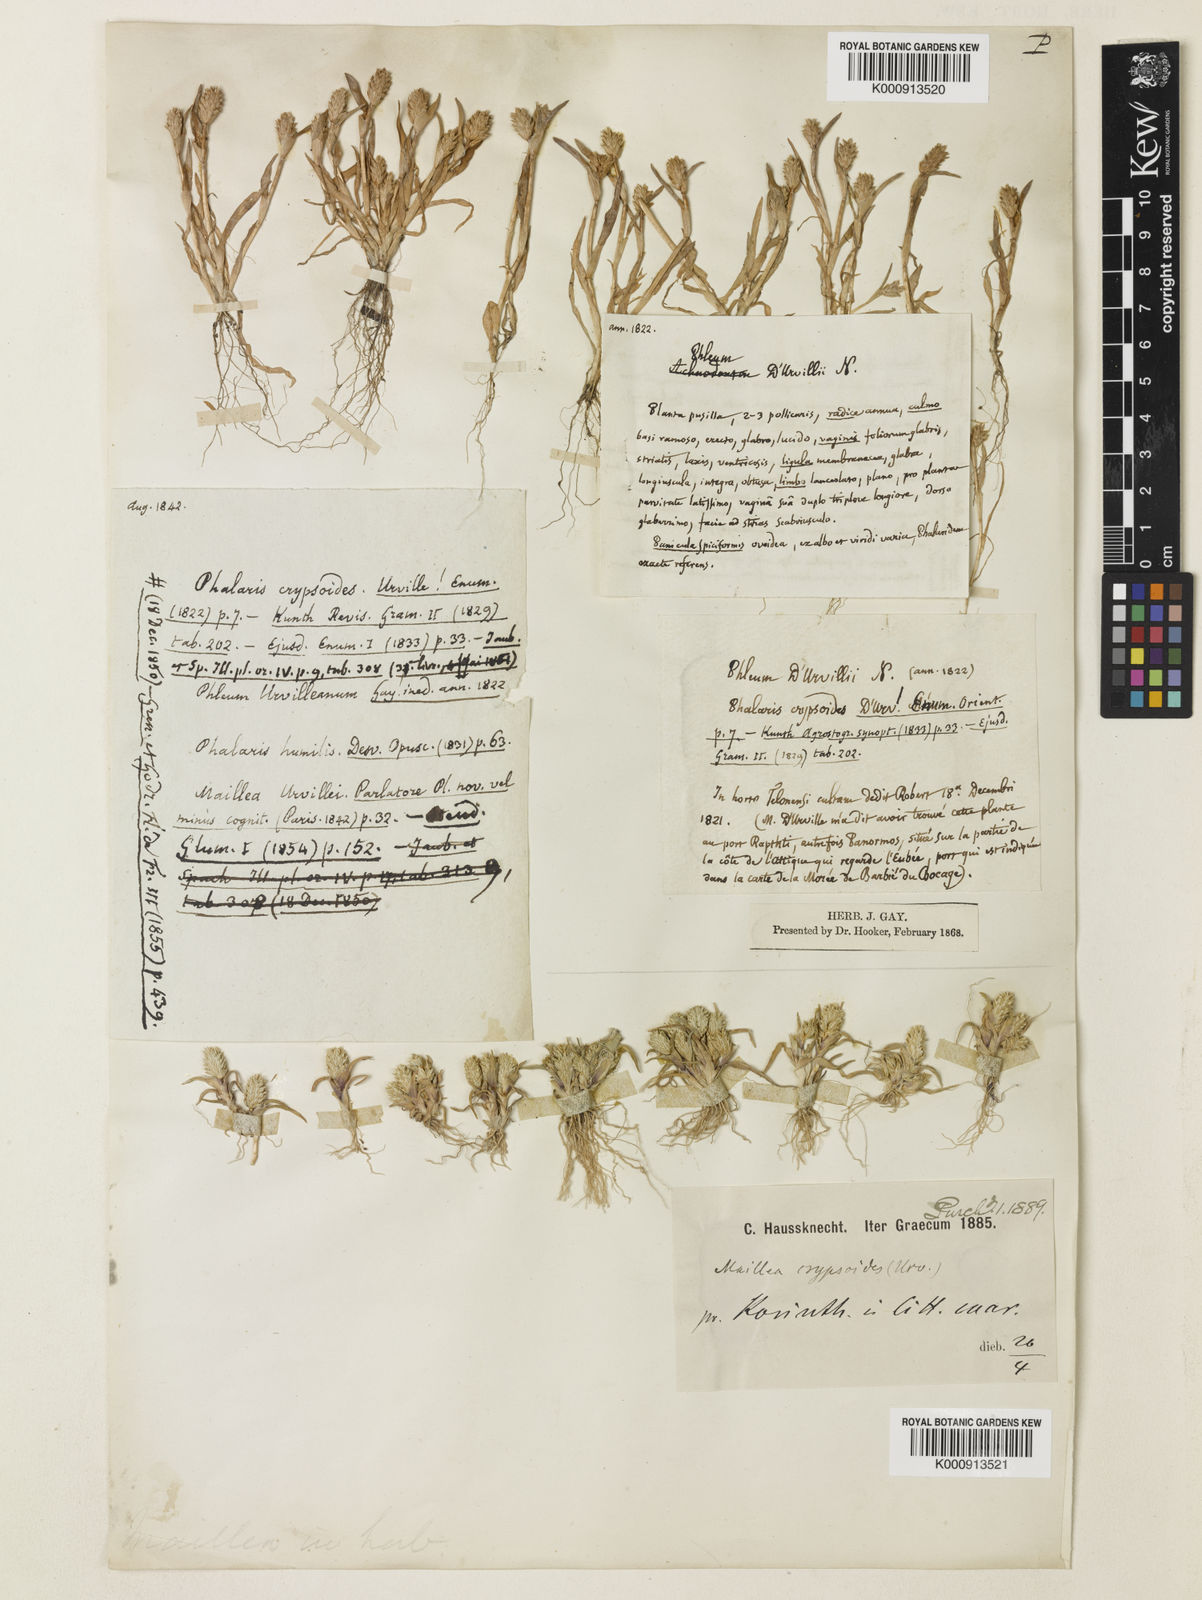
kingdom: Plantae
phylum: Tracheophyta
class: Liliopsida
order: Poales
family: Poaceae
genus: Phleum
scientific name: Phleum crypsoides
